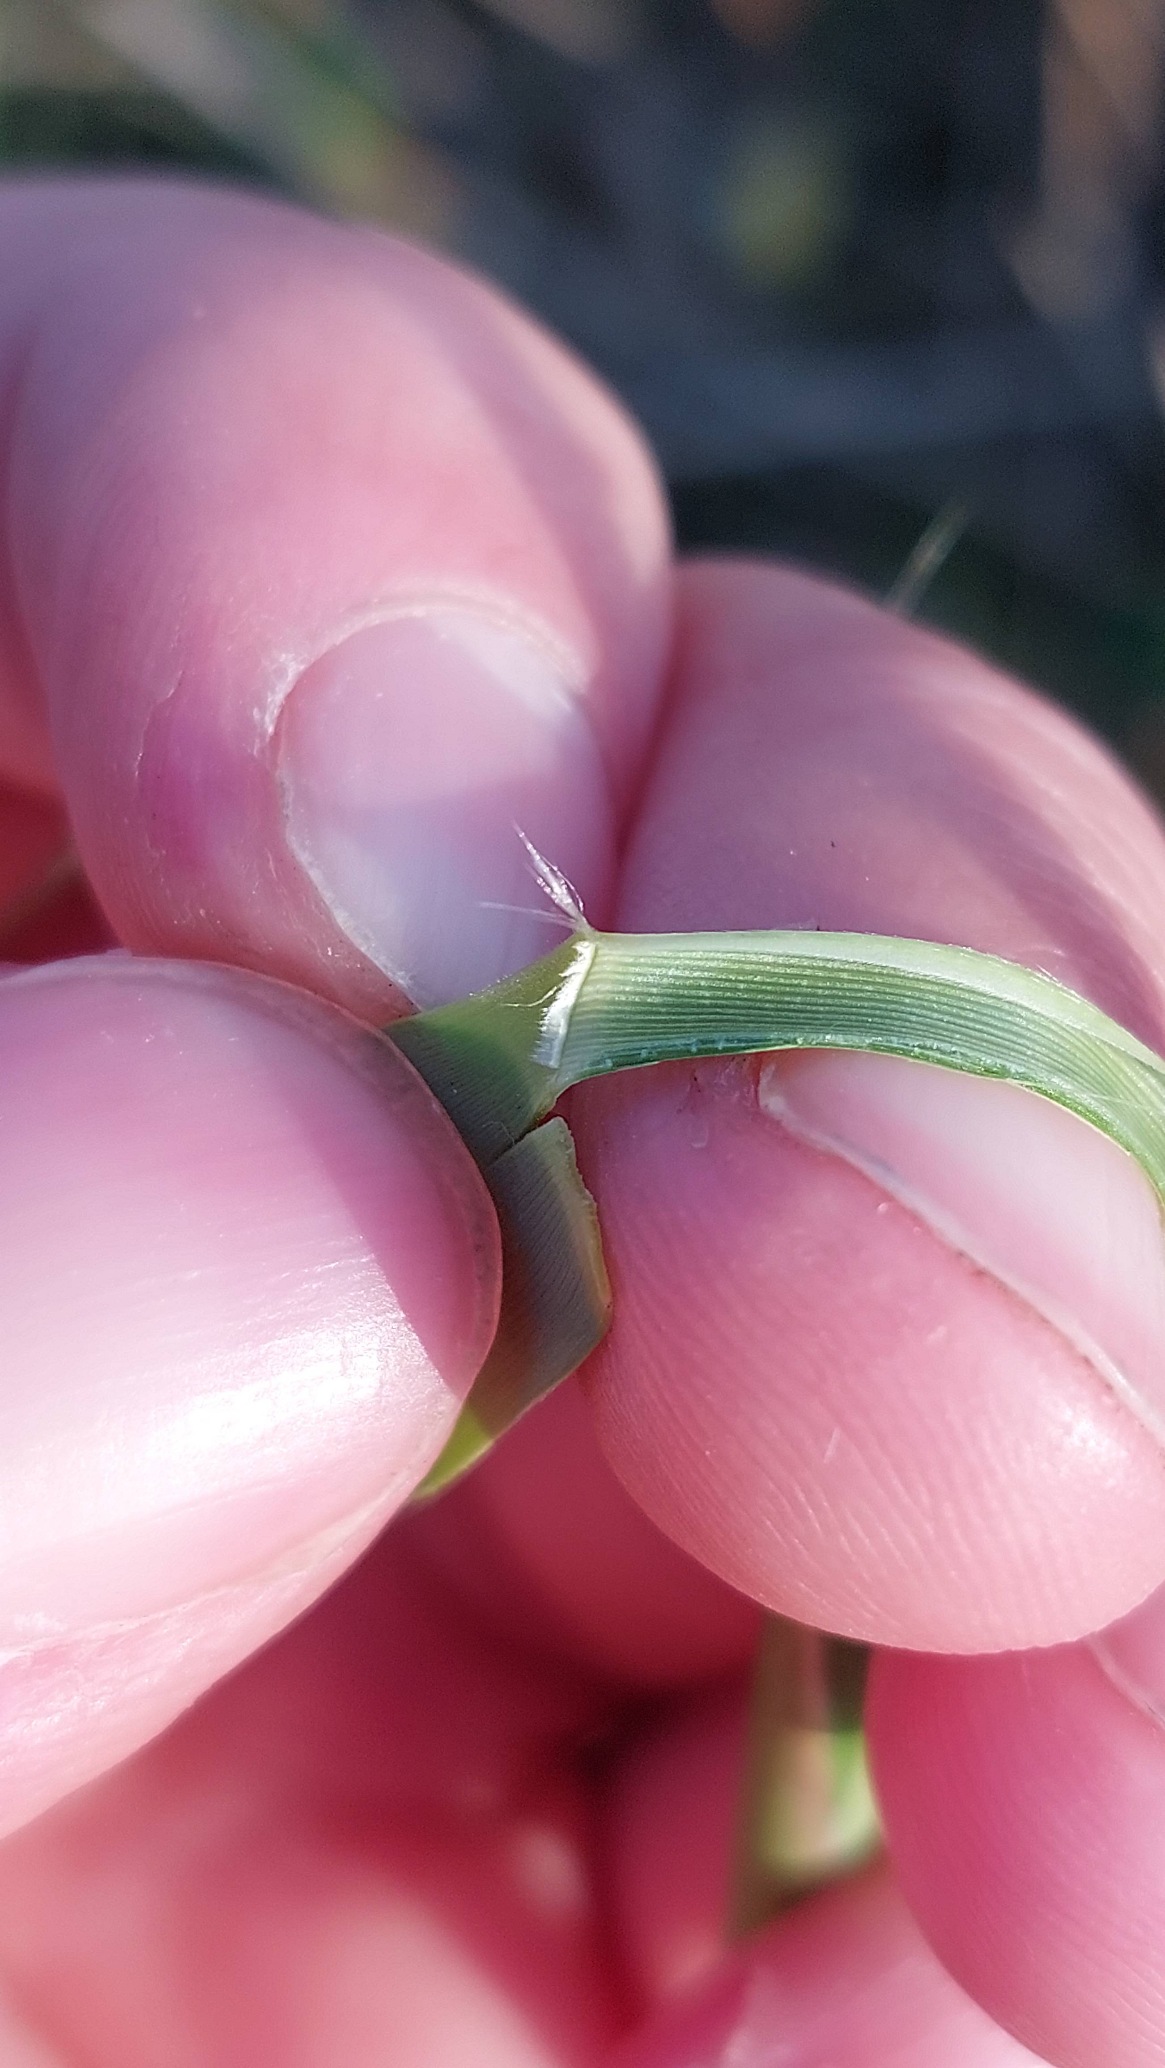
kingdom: Plantae
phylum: Tracheophyta
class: Liliopsida
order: Poales
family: Poaceae
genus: Phragmites
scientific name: Phragmites australis
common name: Tagrør
